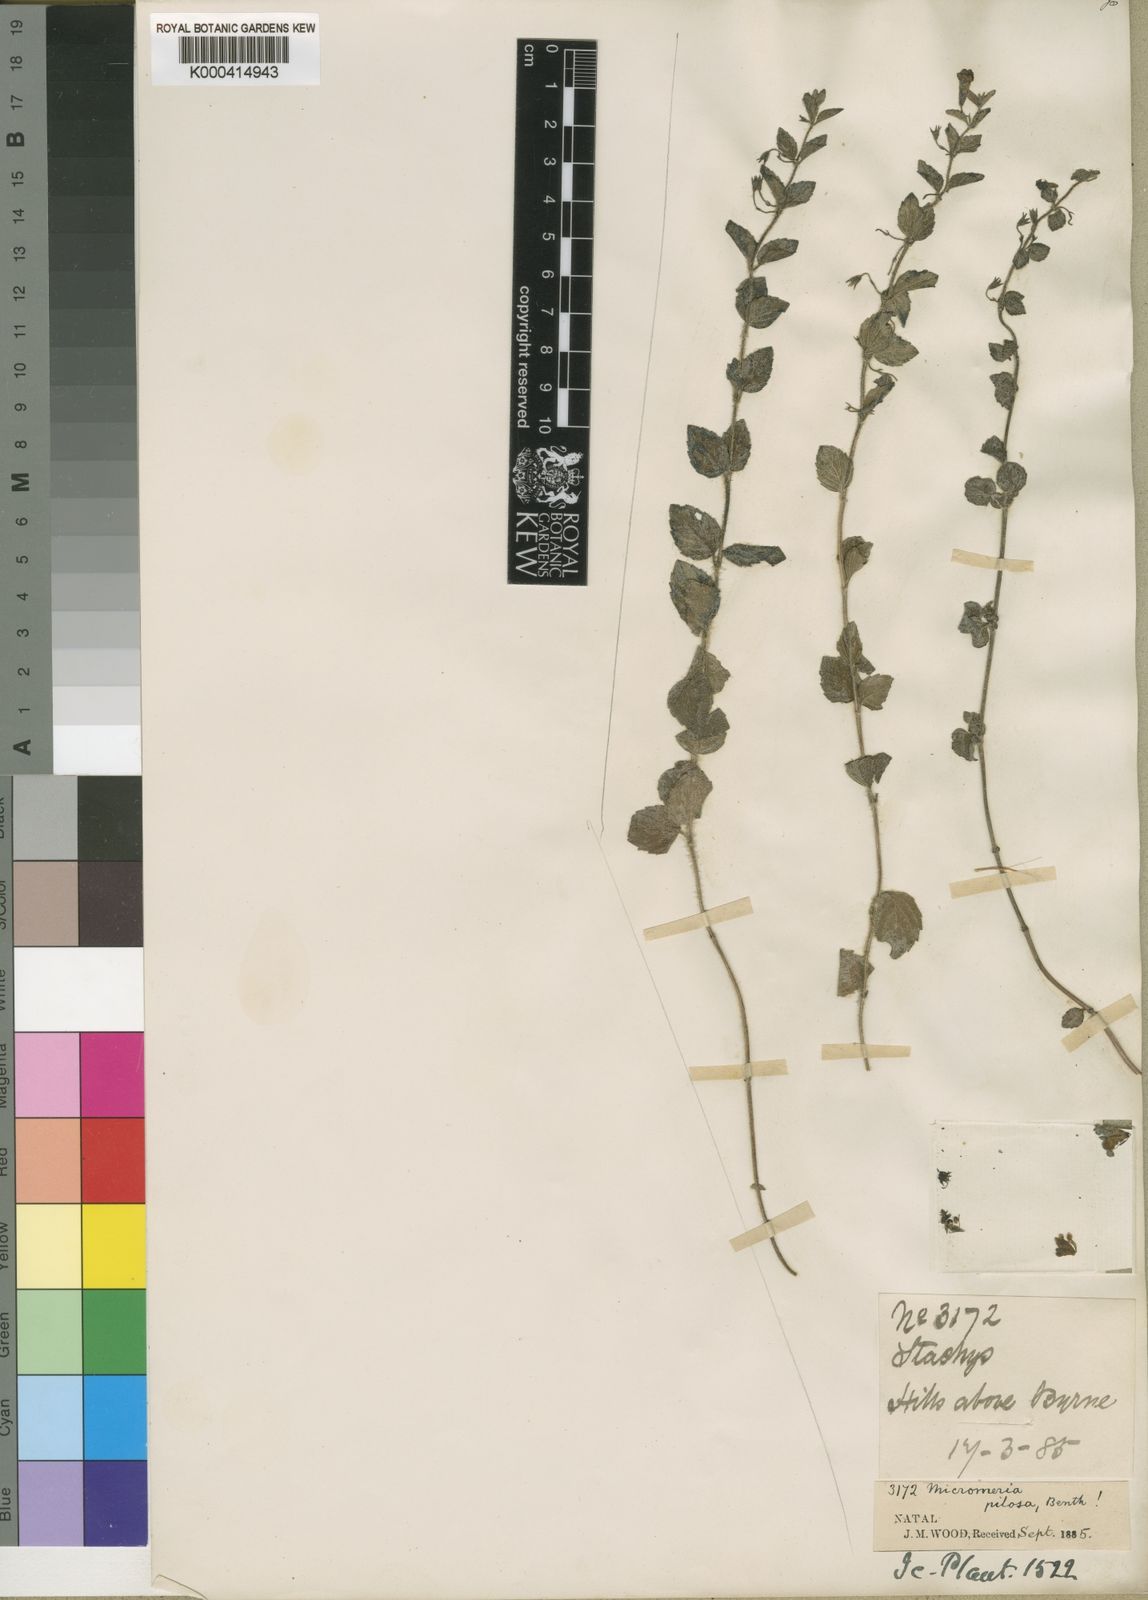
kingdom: Plantae
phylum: Tracheophyta
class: Magnoliopsida
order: Lamiales
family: Lamiaceae
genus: Killickia
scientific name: Killickia pilosa
